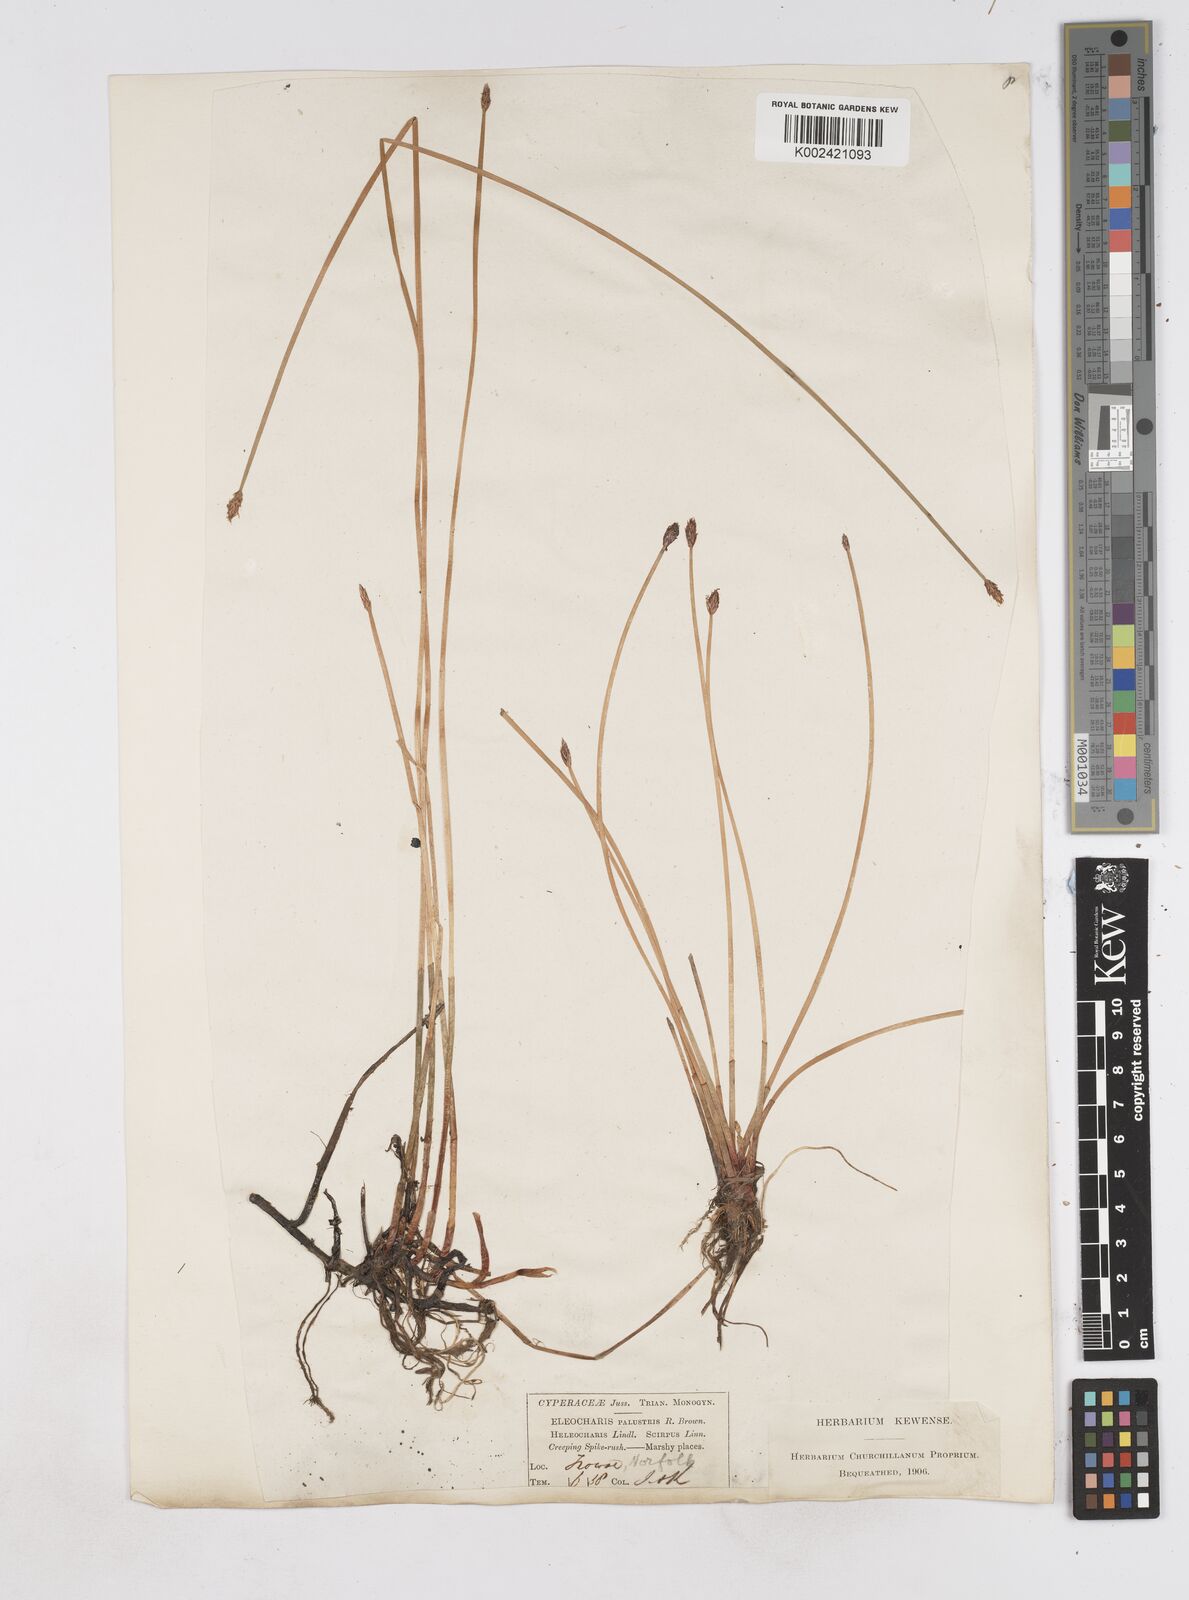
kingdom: Plantae
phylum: Tracheophyta
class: Liliopsida
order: Poales
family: Cyperaceae
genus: Eleocharis
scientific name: Eleocharis palustris
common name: Common spike-rush
